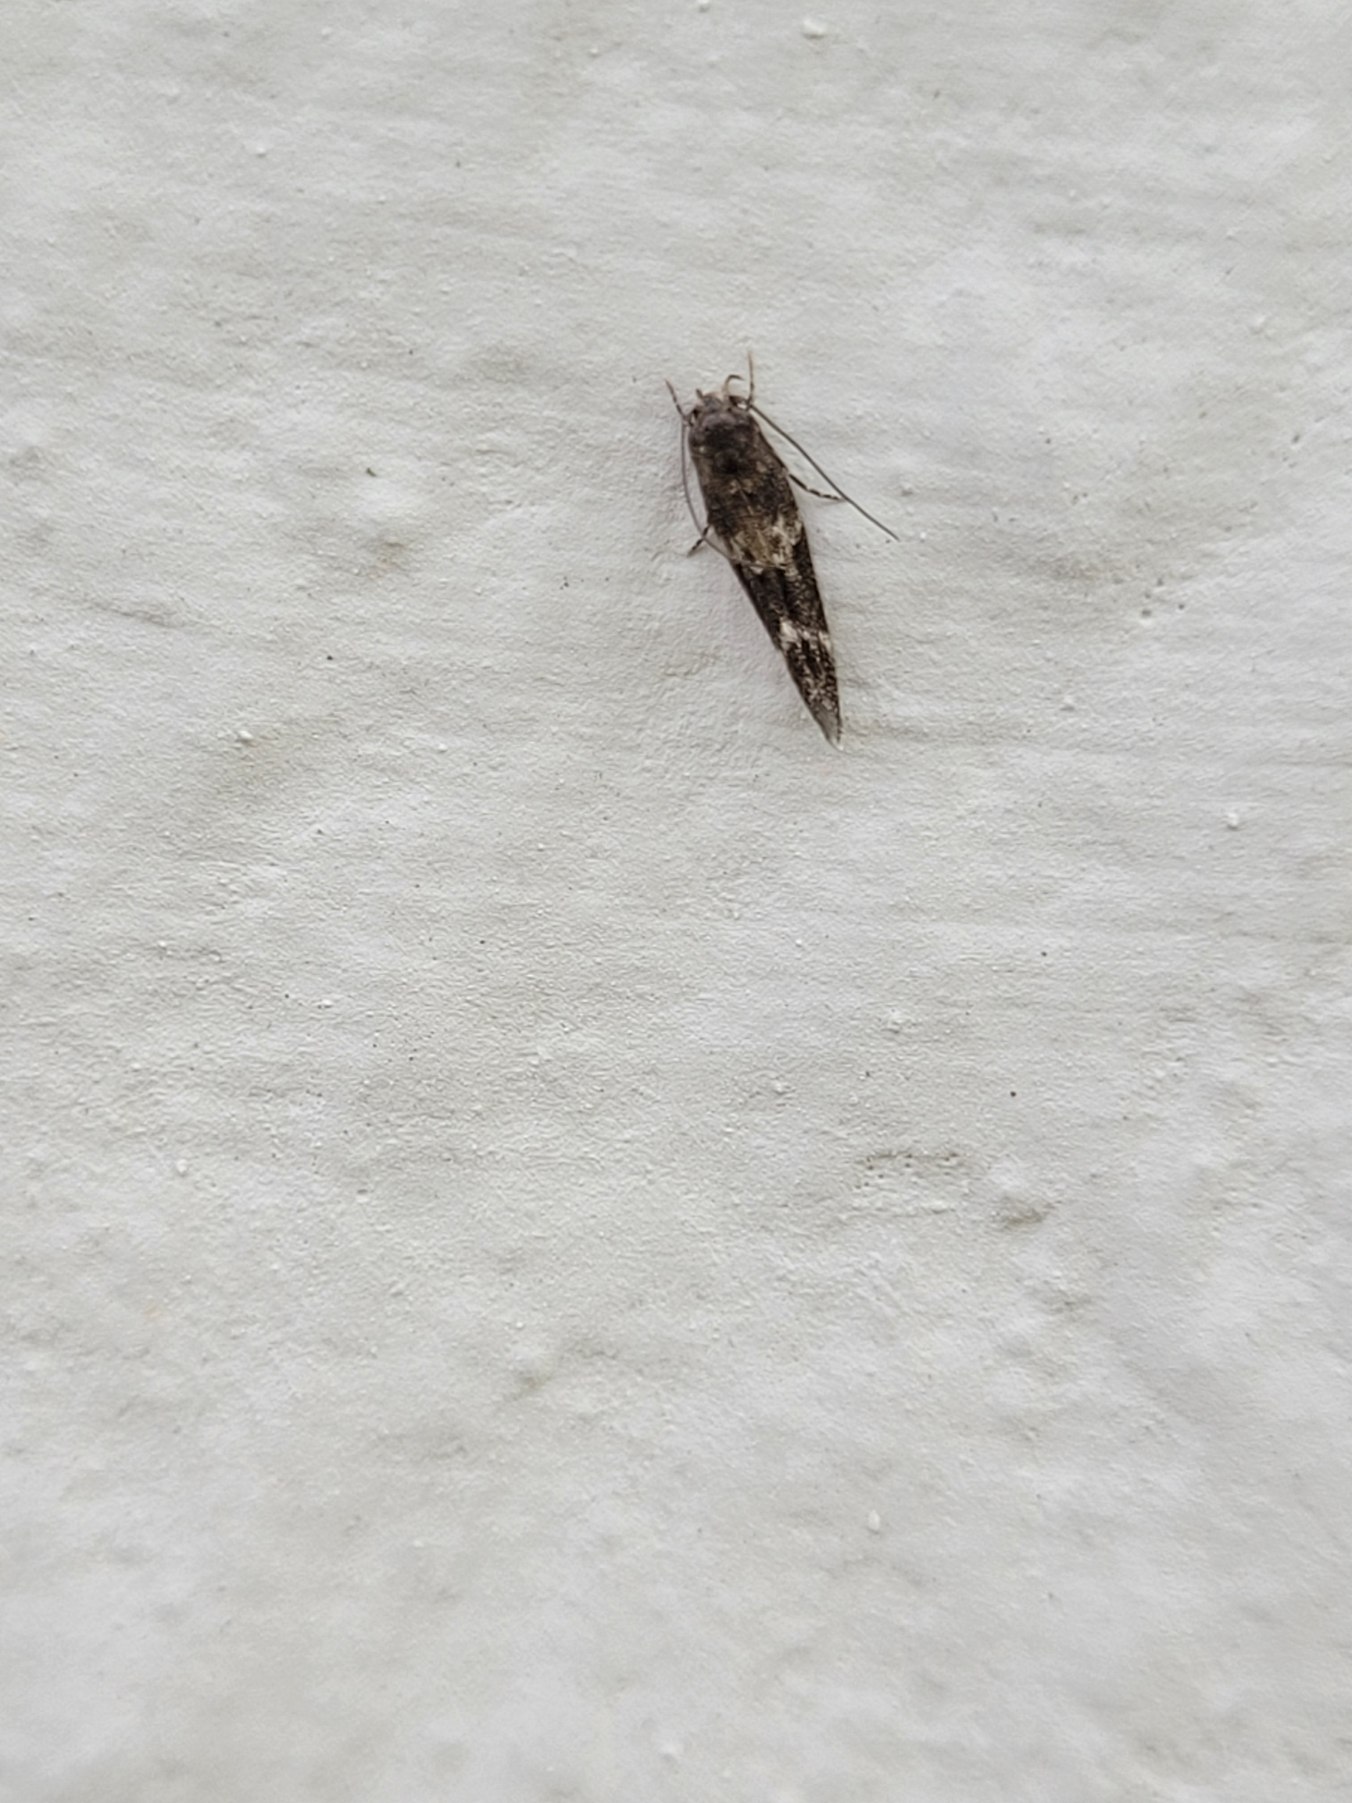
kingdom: Animalia
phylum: Arthropoda
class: Insecta
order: Lepidoptera
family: Momphidae
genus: Mompha
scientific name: Mompha subbistrigella
